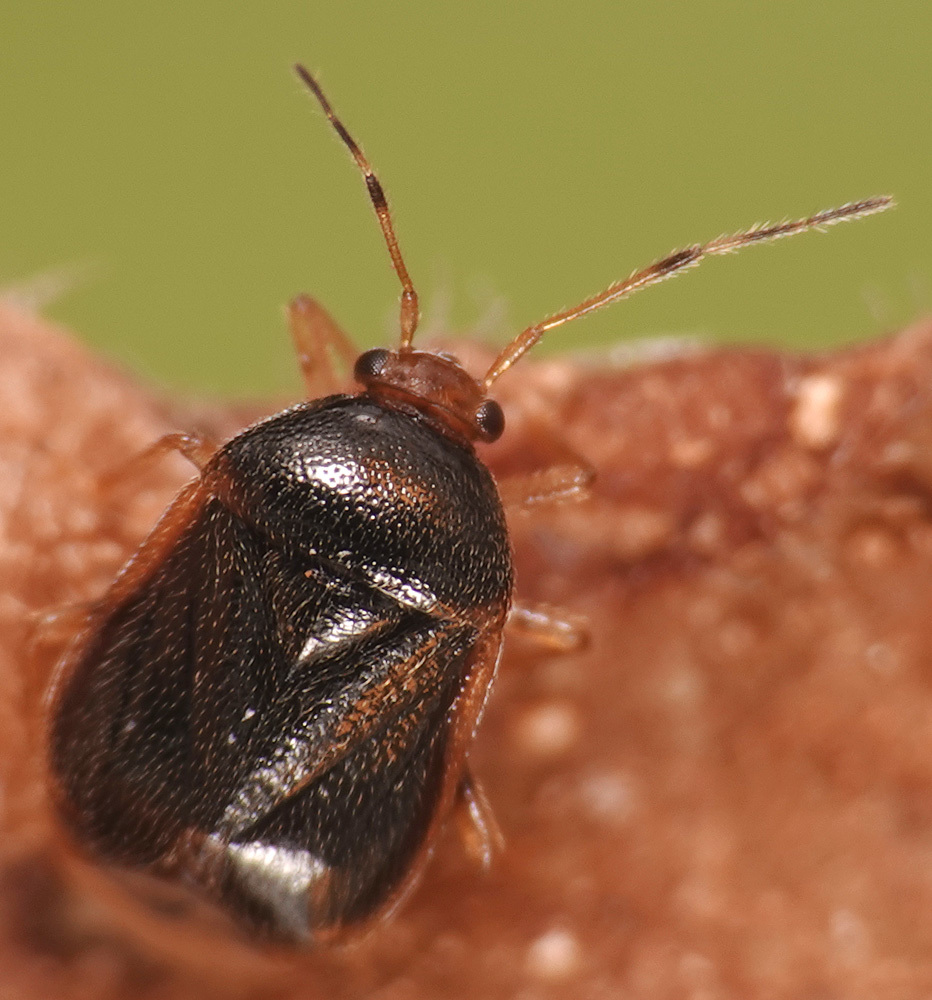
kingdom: Animalia
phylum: Arthropoda
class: Insecta
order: Hemiptera
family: Miridae
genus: Monalocoris
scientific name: Monalocoris filicis
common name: Bracken bug
